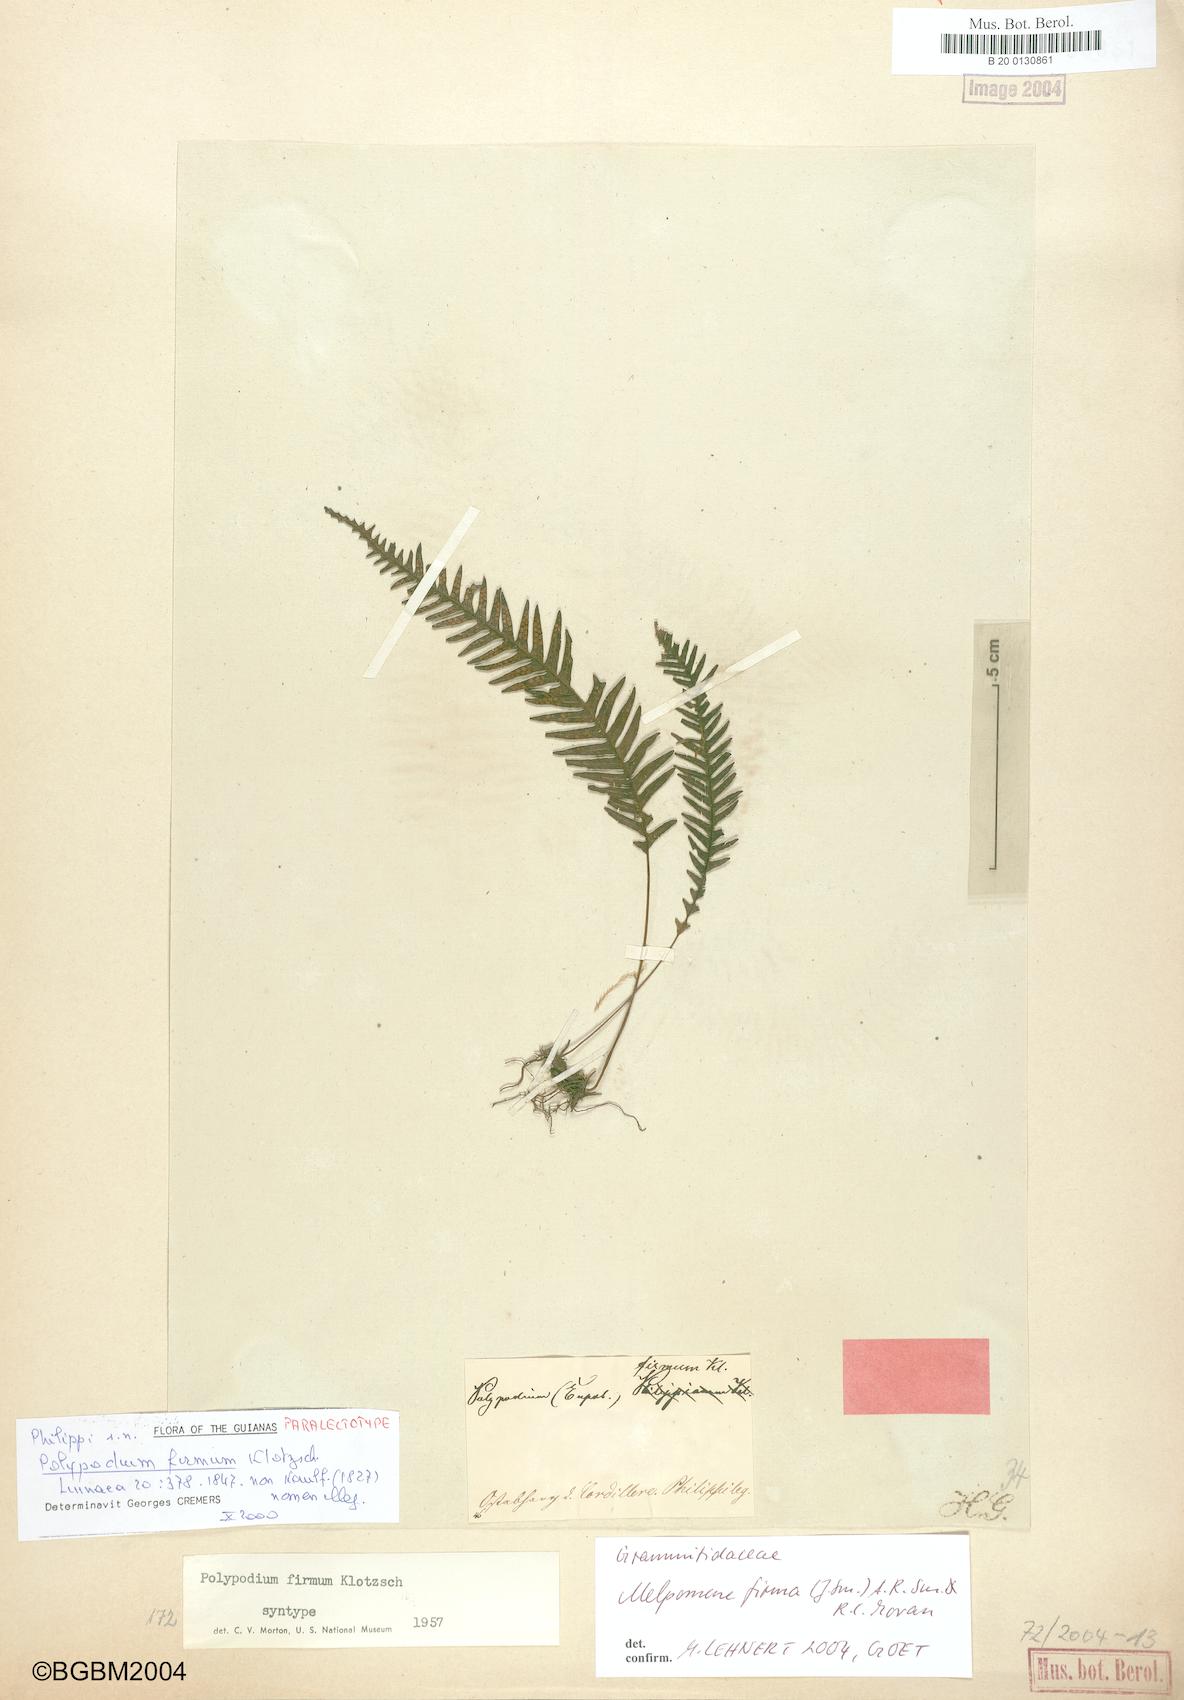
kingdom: Plantae
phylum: Tracheophyta
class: Polypodiopsida
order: Polypodiales
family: Polypodiaceae
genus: Melpomene
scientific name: Melpomene firma
